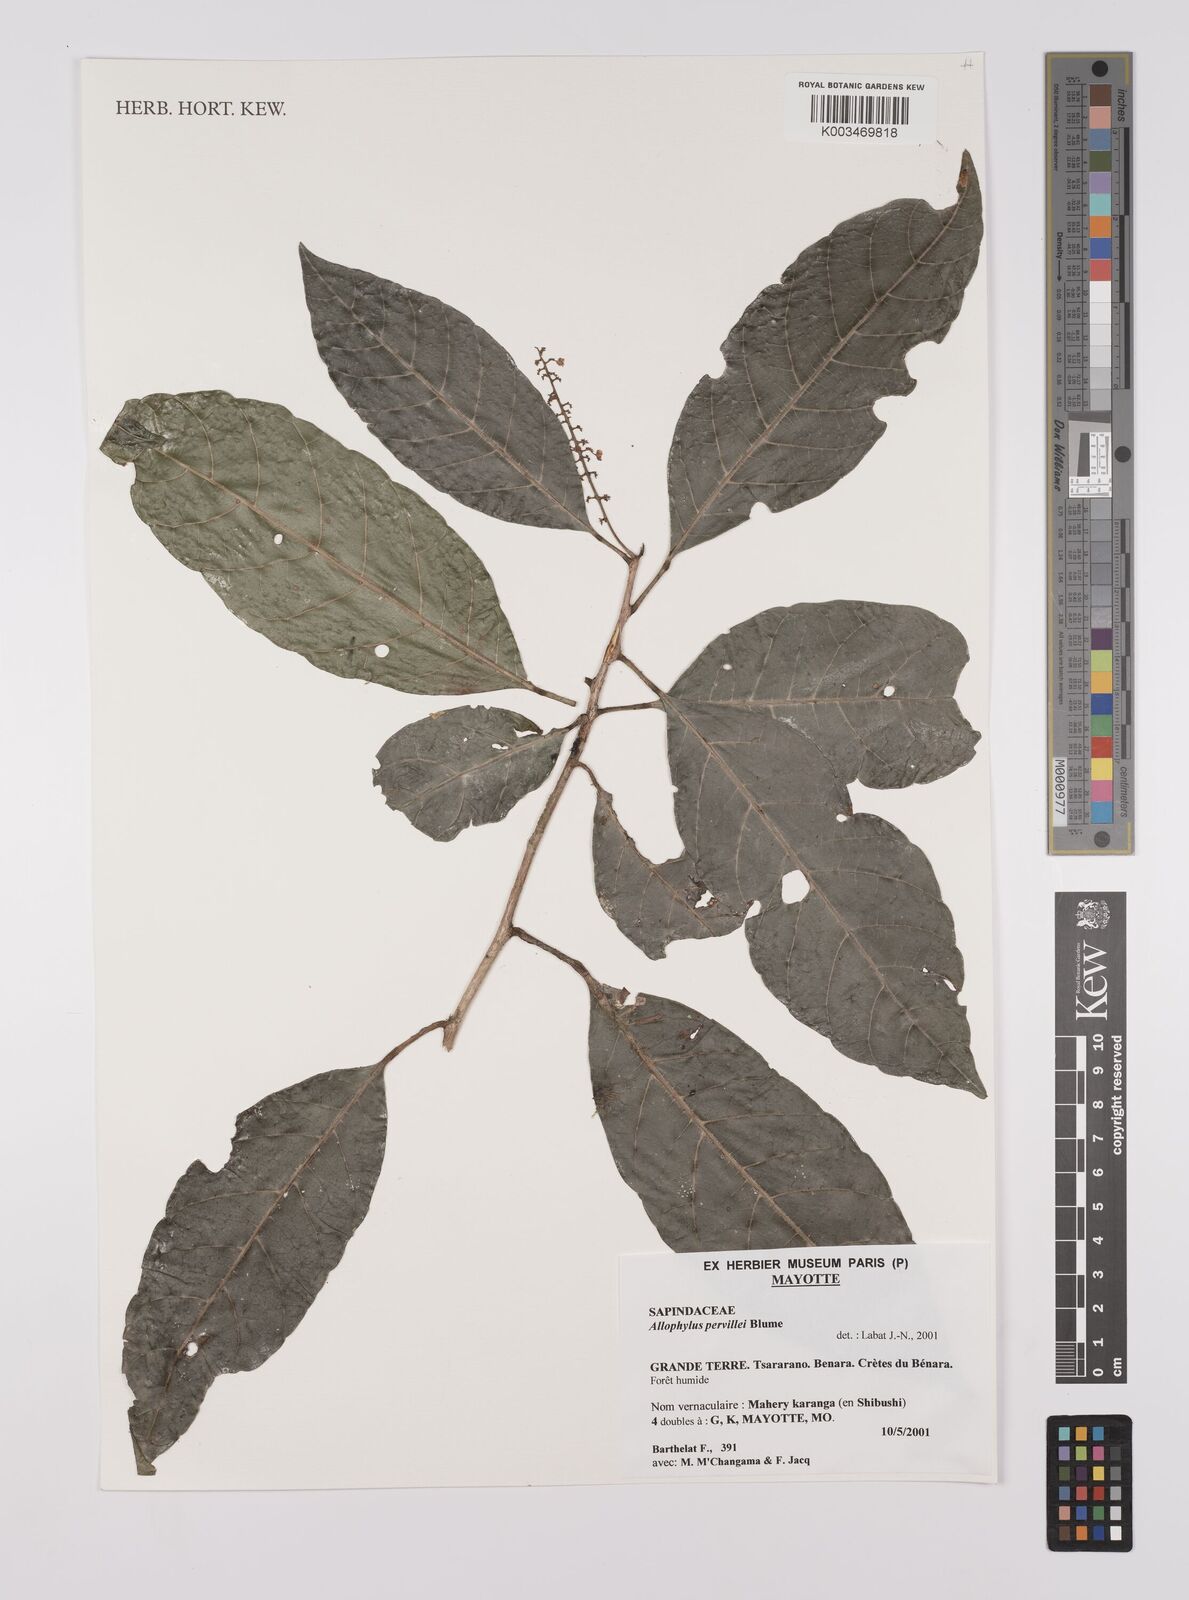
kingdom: Plantae
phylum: Tracheophyta
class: Magnoliopsida
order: Sapindales
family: Sapindaceae
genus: Allophylus
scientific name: Allophylus pervillei
